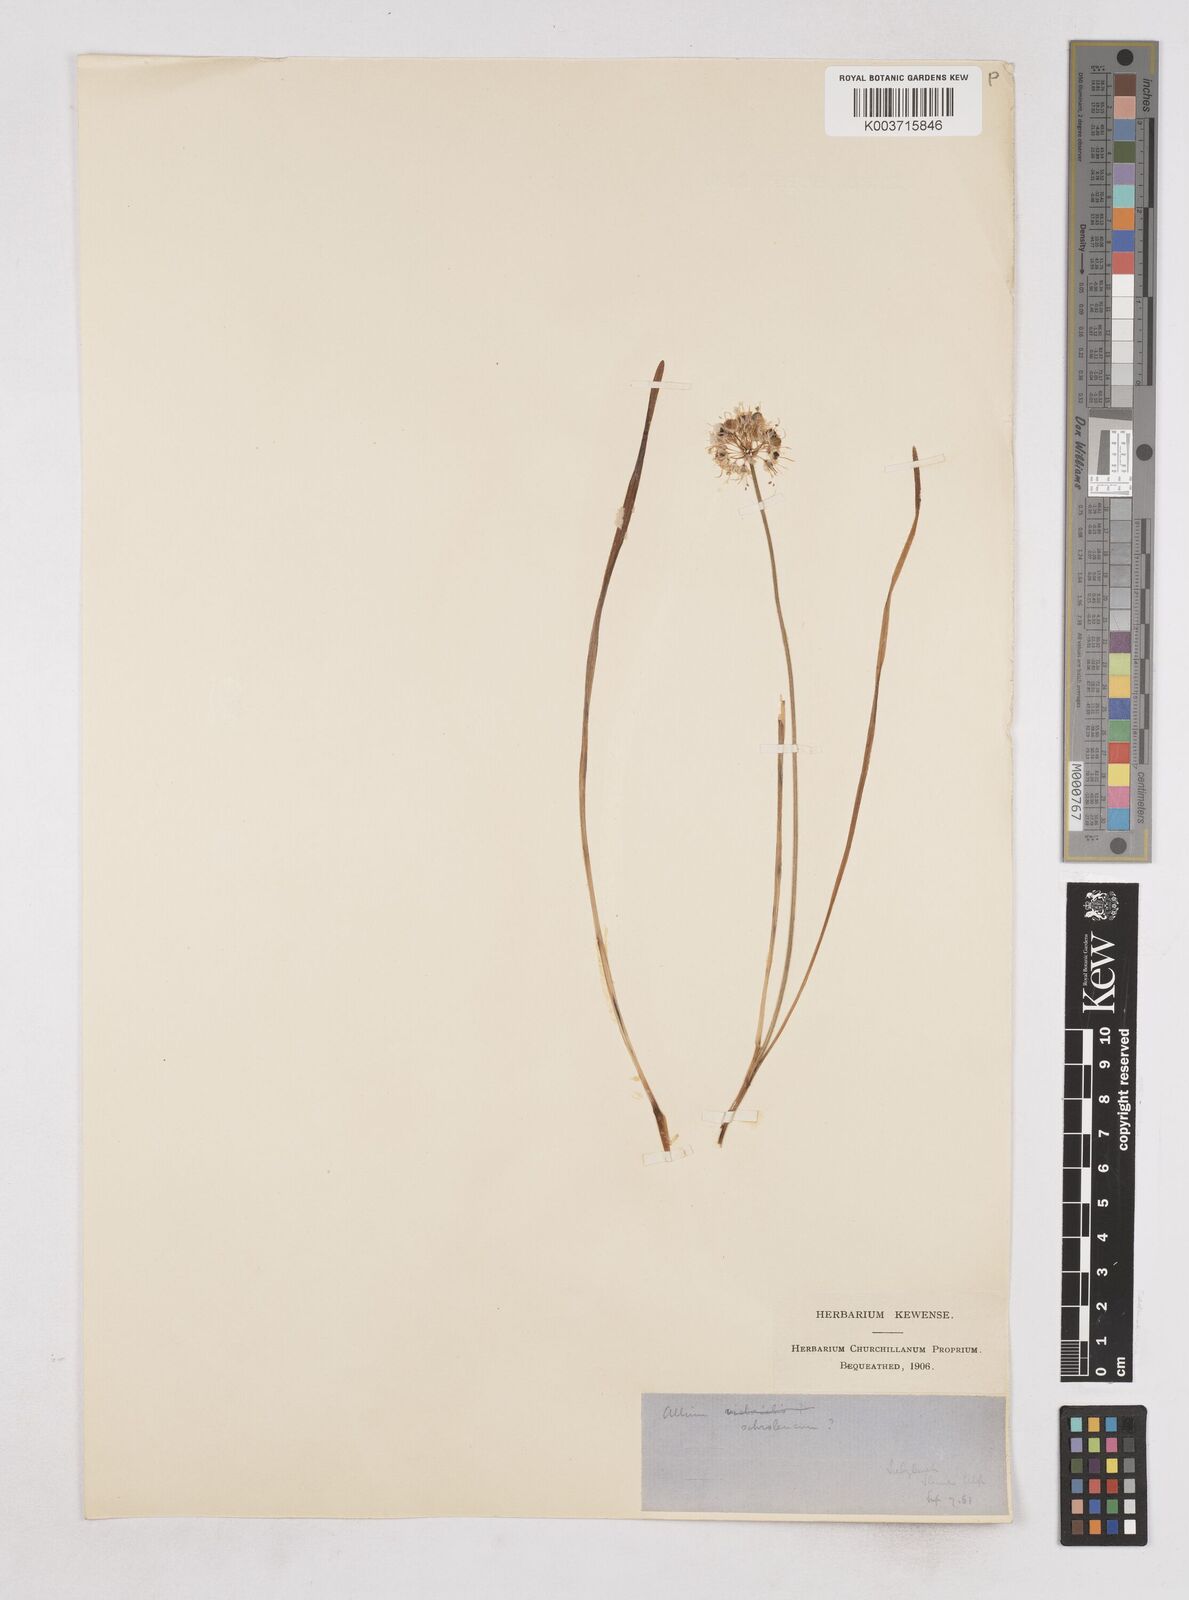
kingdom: Plantae
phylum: Tracheophyta
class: Liliopsida
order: Asparagales
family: Amaryllidaceae
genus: Allium
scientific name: Allium ericetorum
